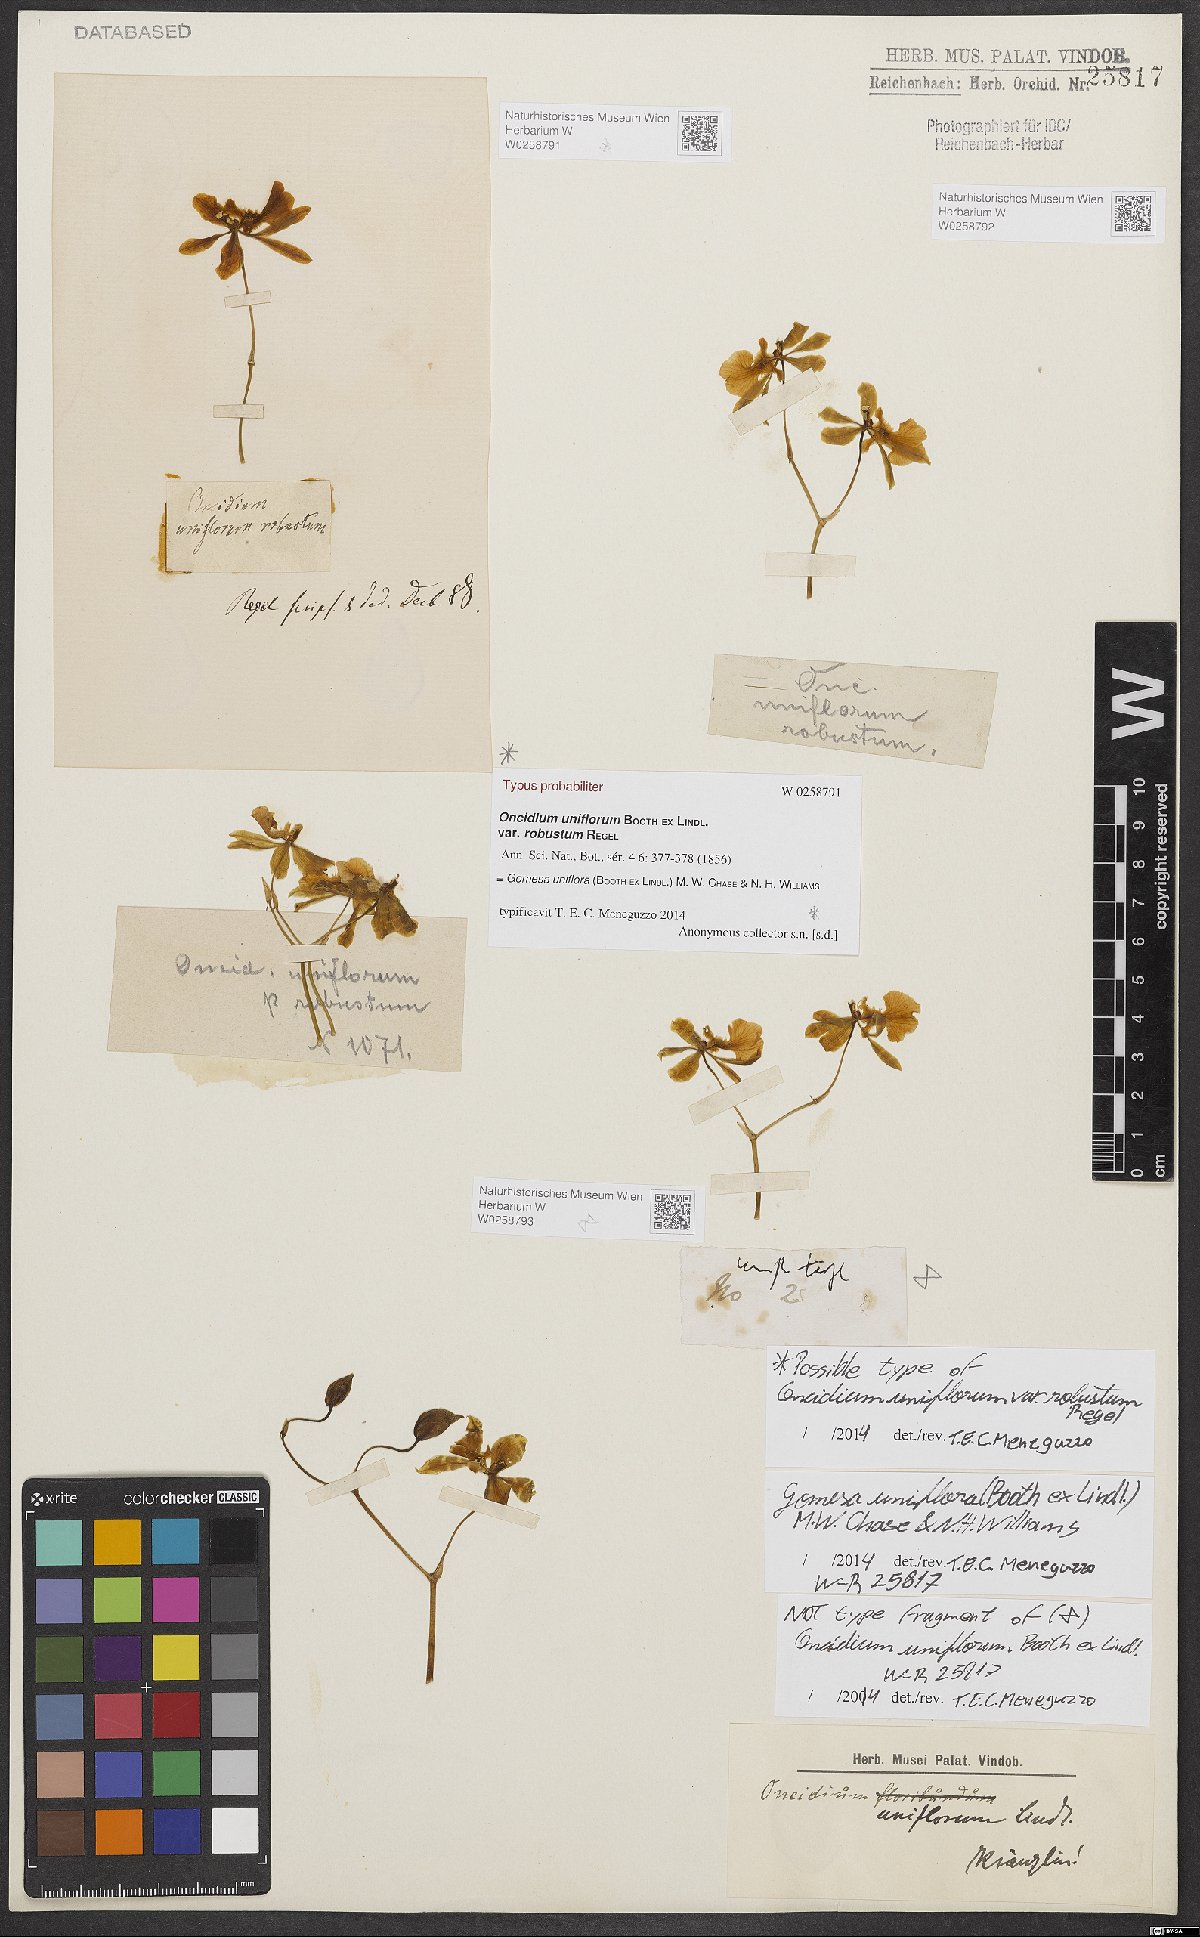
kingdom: Plantae
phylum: Tracheophyta
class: Liliopsida
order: Asparagales
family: Orchidaceae
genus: Gomesa
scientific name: Gomesa uniflora
